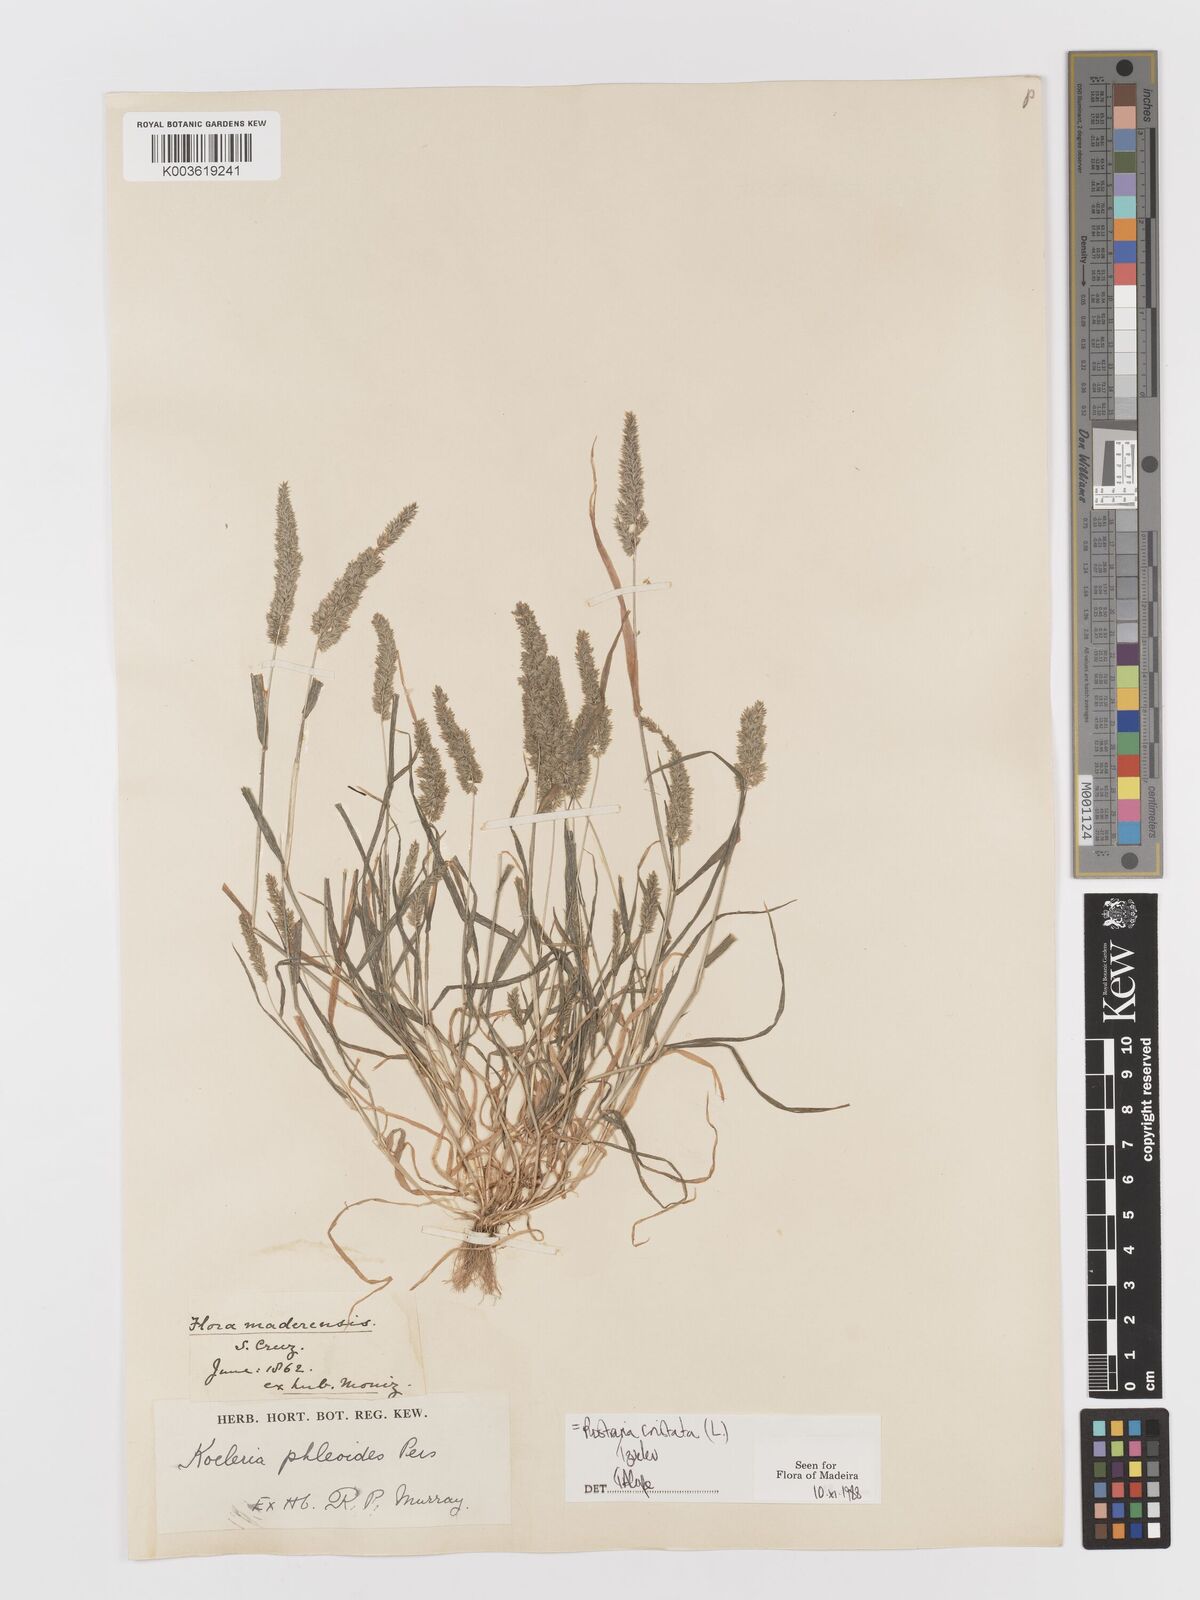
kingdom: Plantae
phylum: Tracheophyta
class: Liliopsida
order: Poales
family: Poaceae
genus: Rostraria
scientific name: Rostraria cristata
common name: Mediterranean hair-grass
